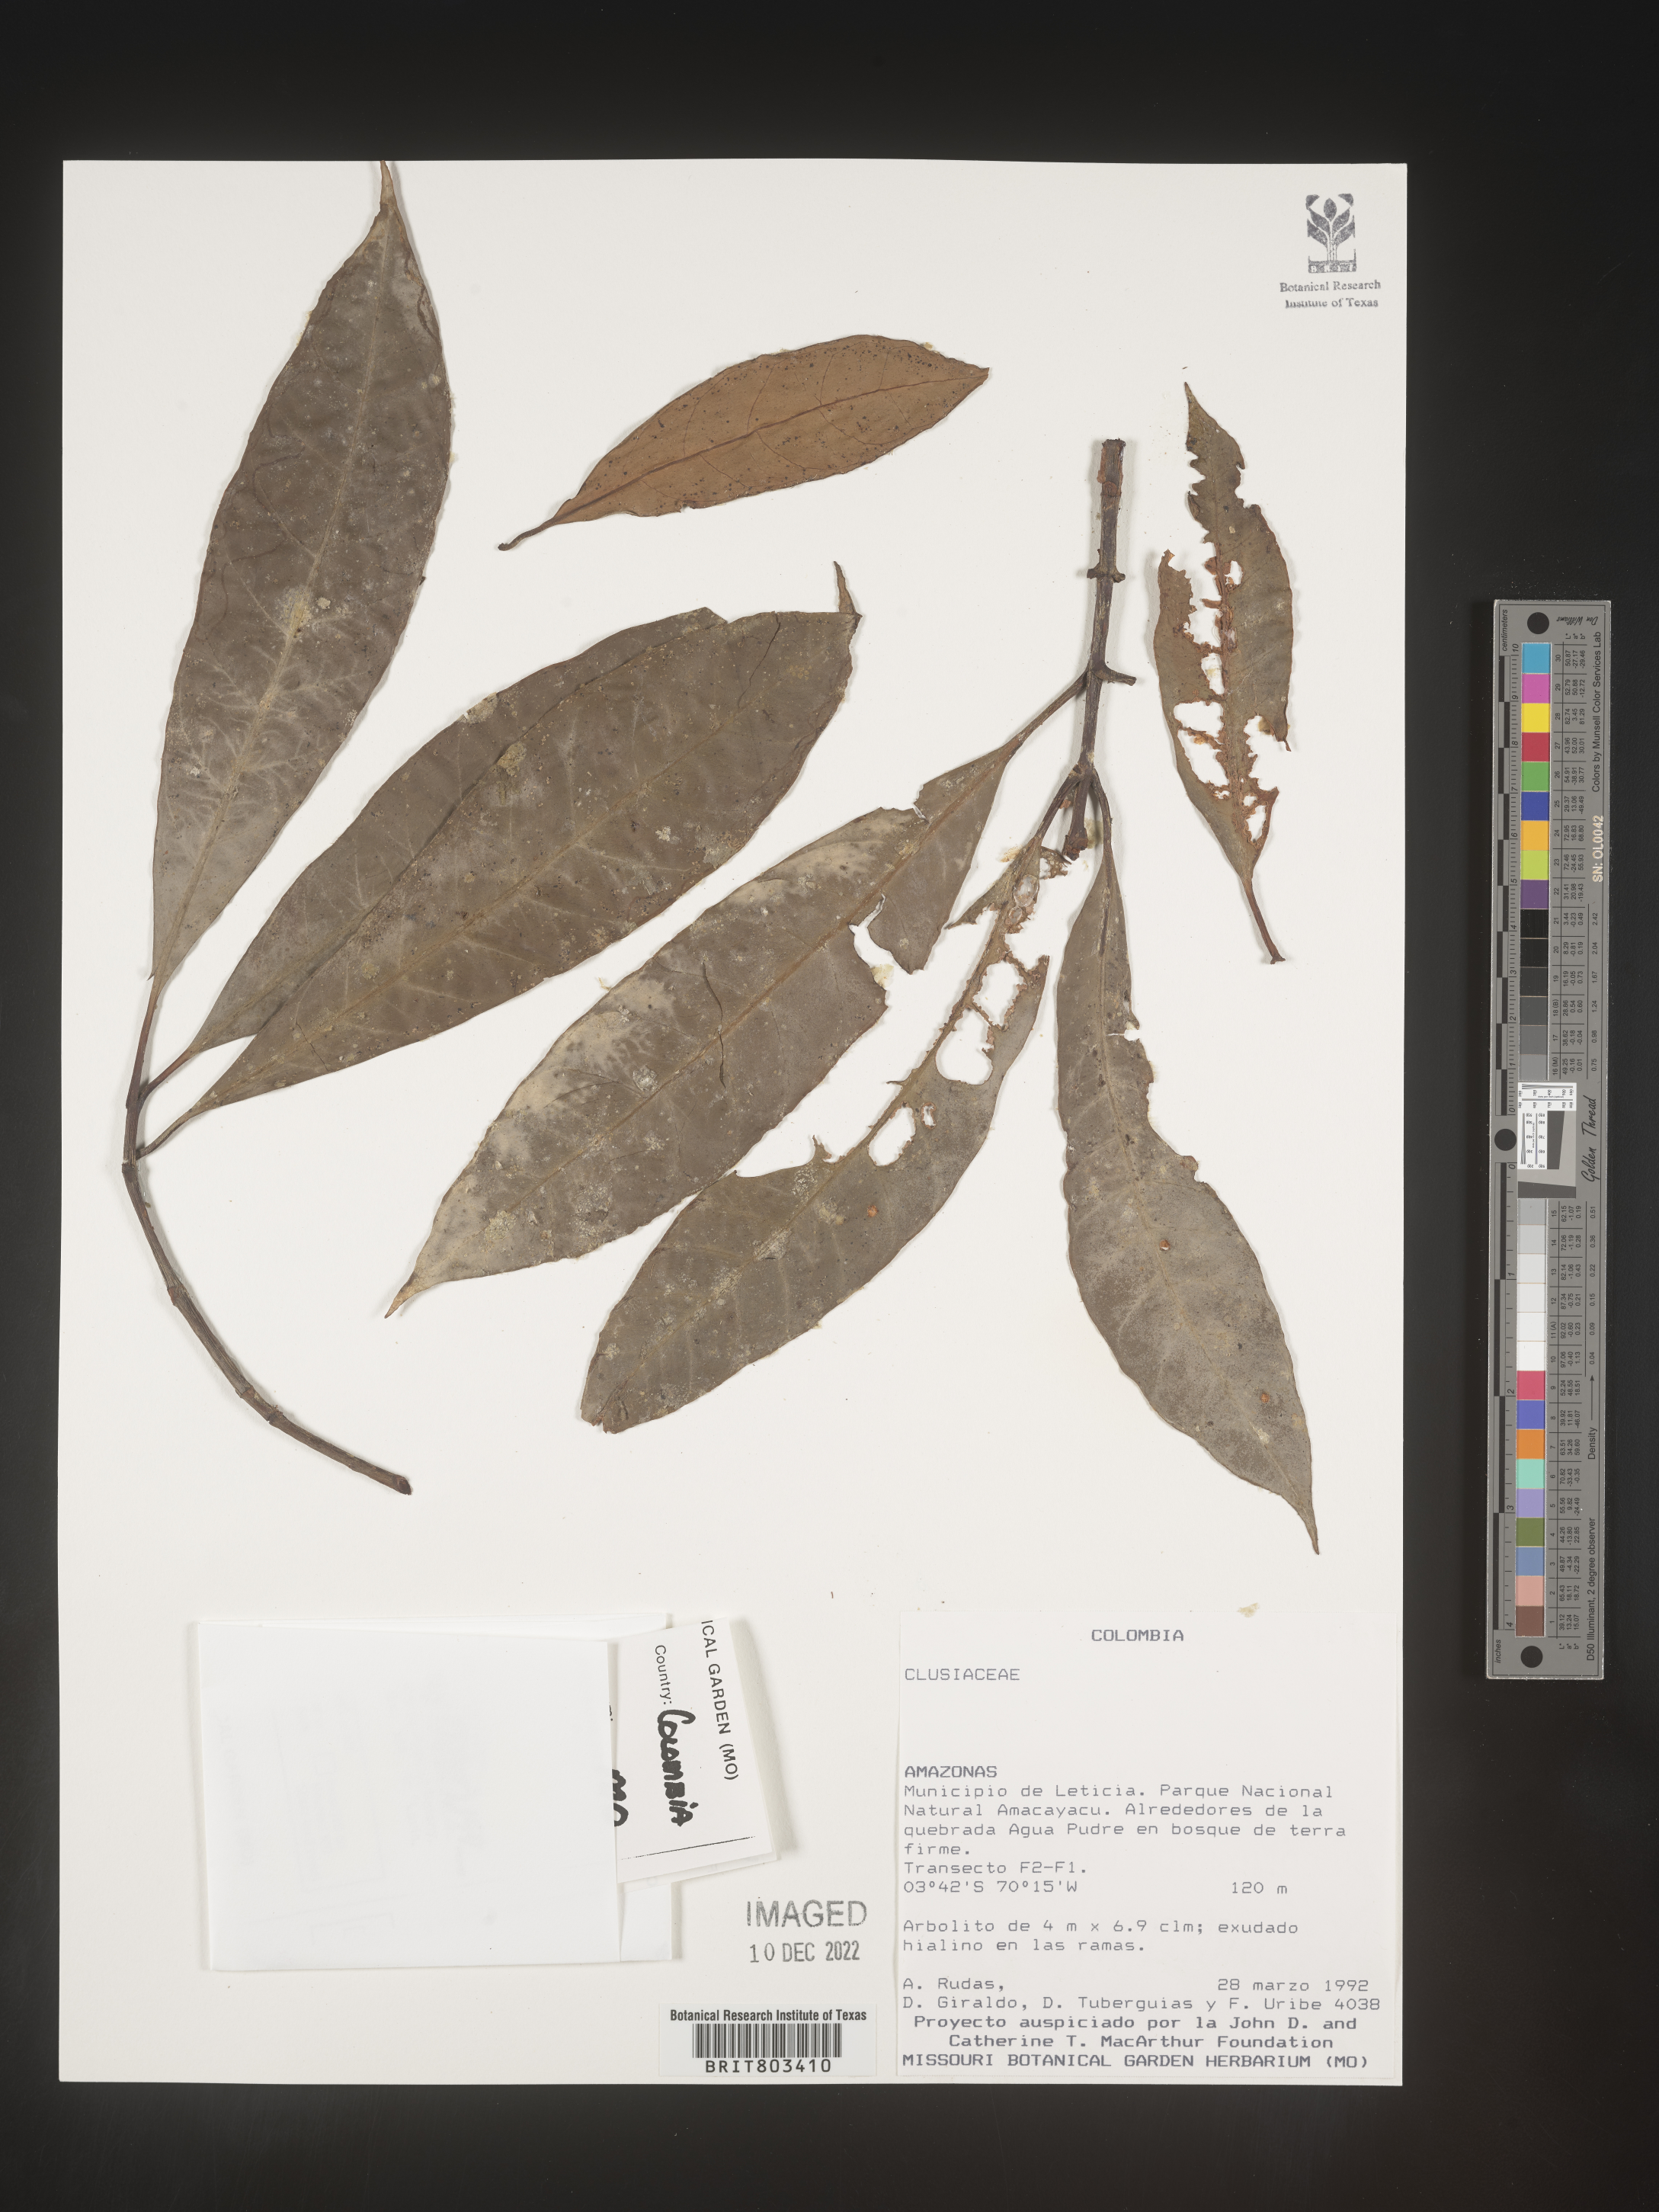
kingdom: Plantae
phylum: Tracheophyta
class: Magnoliopsida
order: Malpighiales
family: Clusiaceae
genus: Tovomita
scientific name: Tovomita
